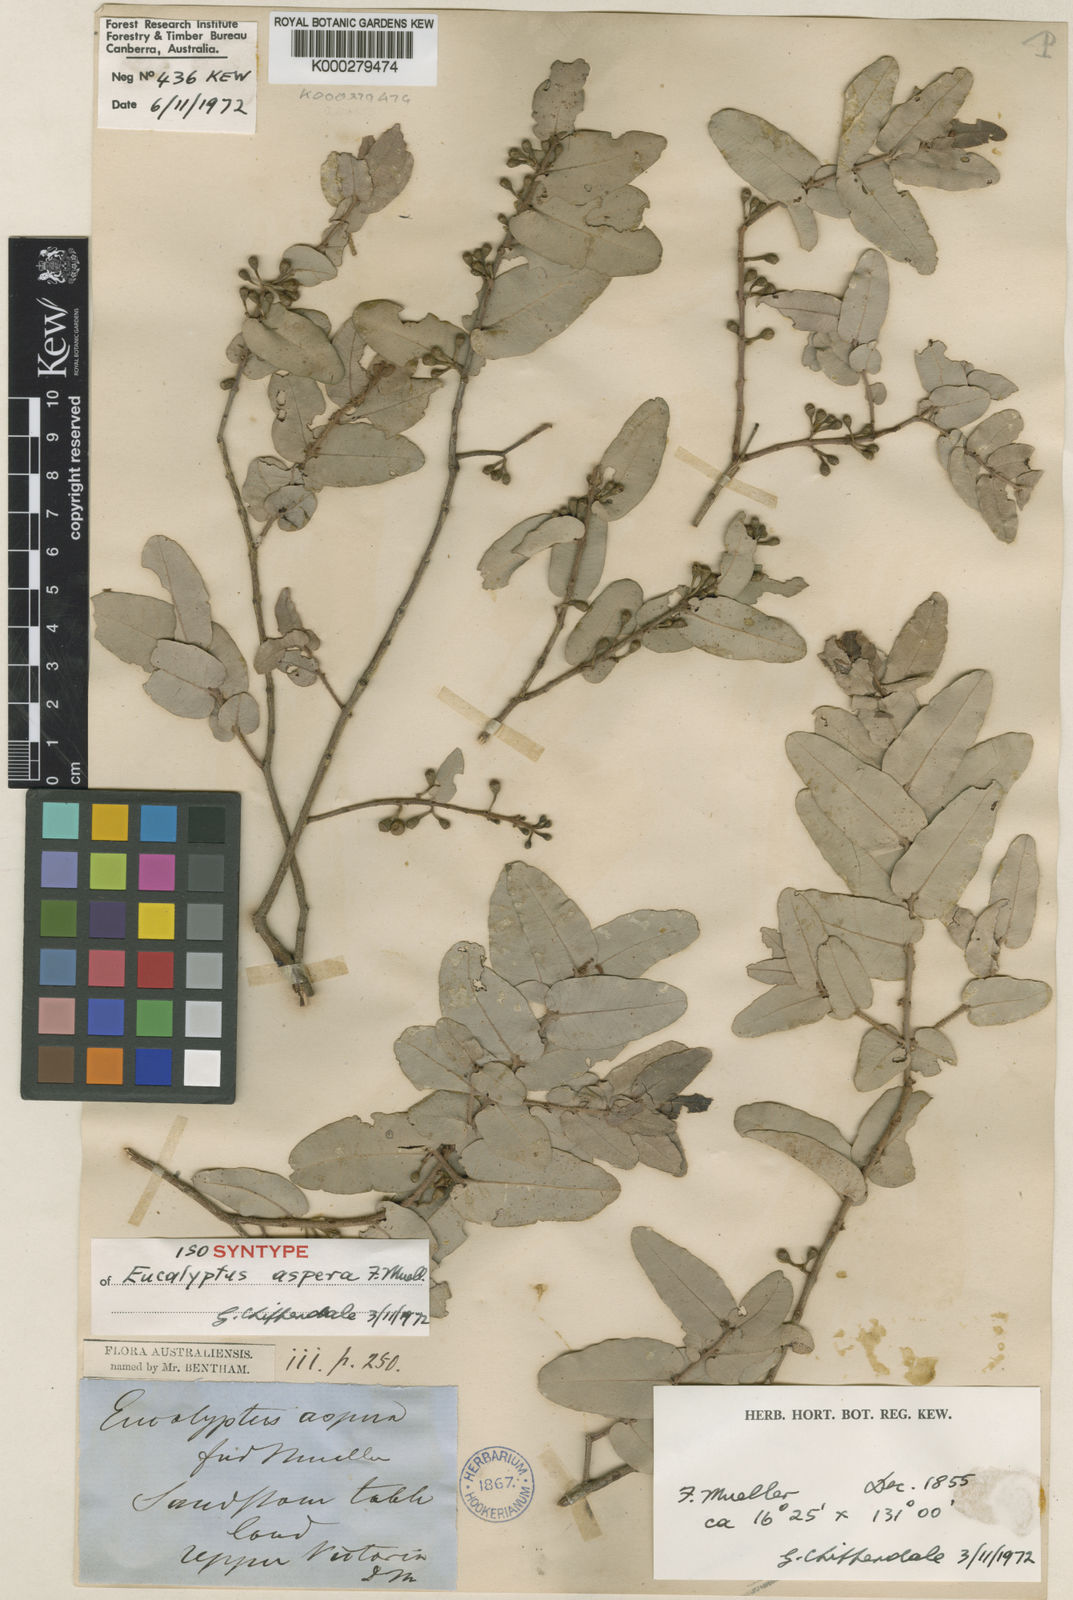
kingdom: Plantae
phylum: Tracheophyta
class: Magnoliopsida
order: Myrtales
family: Myrtaceae
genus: Corymbia
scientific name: Corymbia aspera
